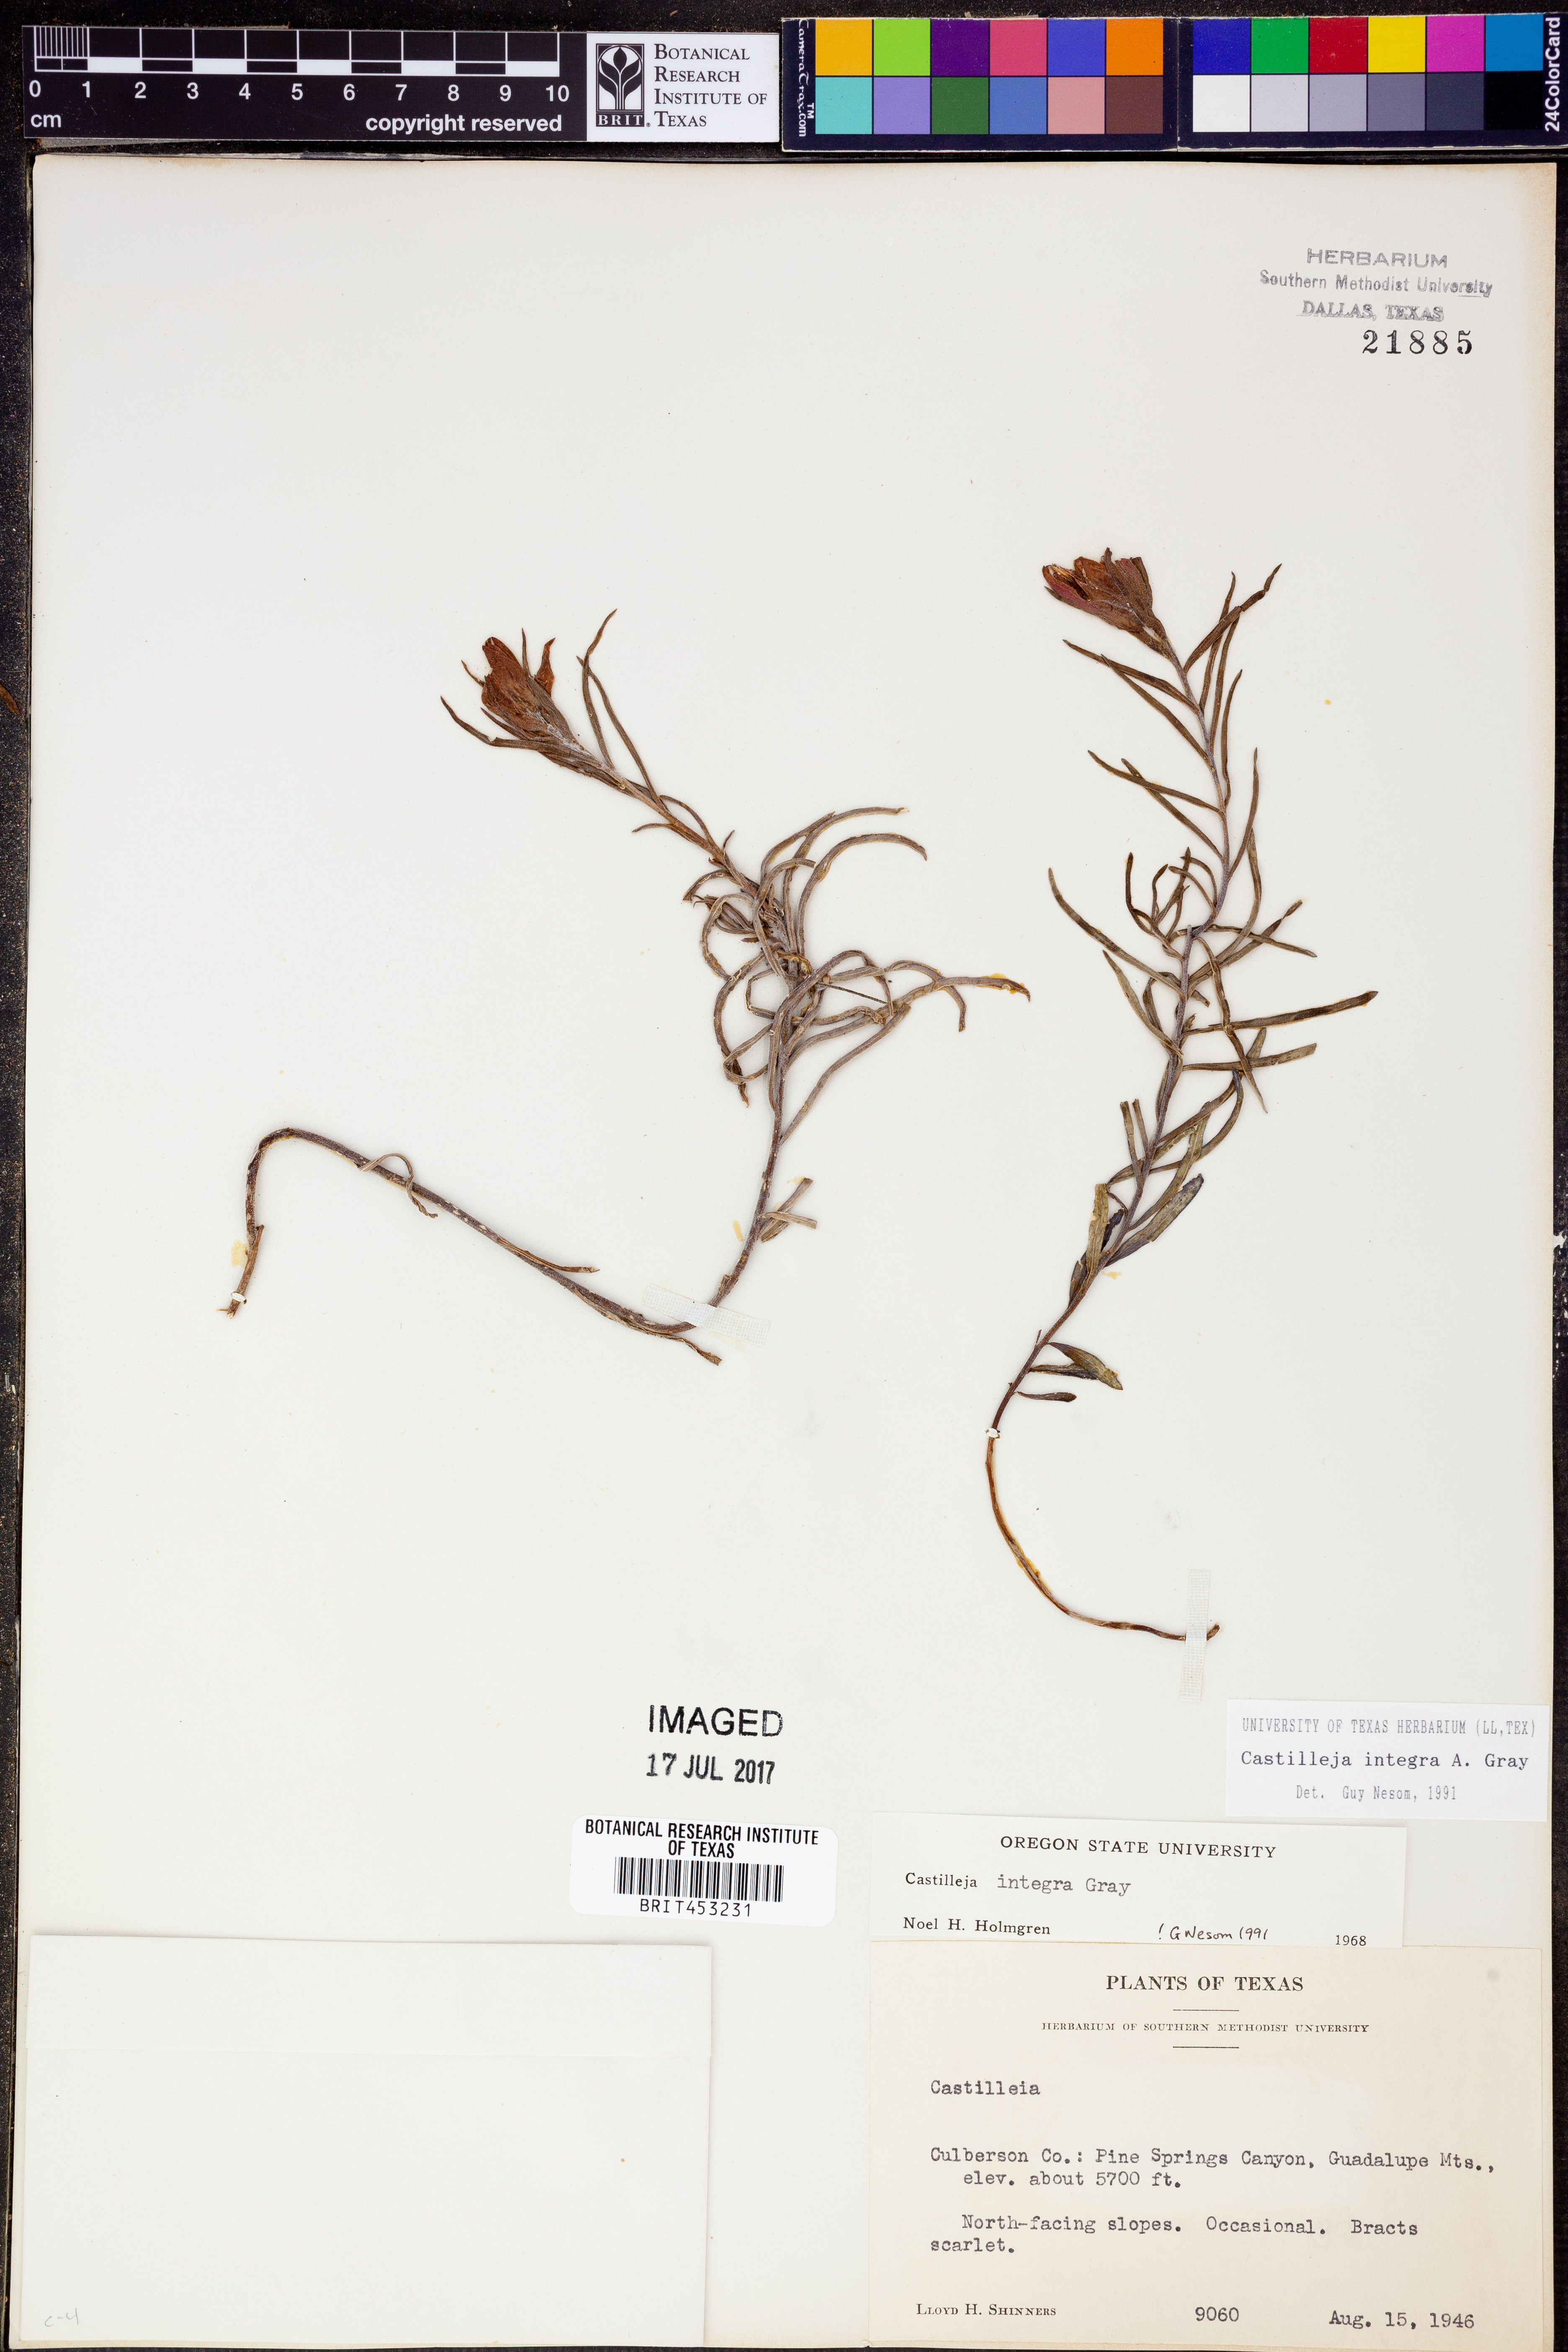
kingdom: Plantae
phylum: Tracheophyta
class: Magnoliopsida
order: Lamiales
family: Orobanchaceae
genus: Castilleja
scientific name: Castilleja integra
